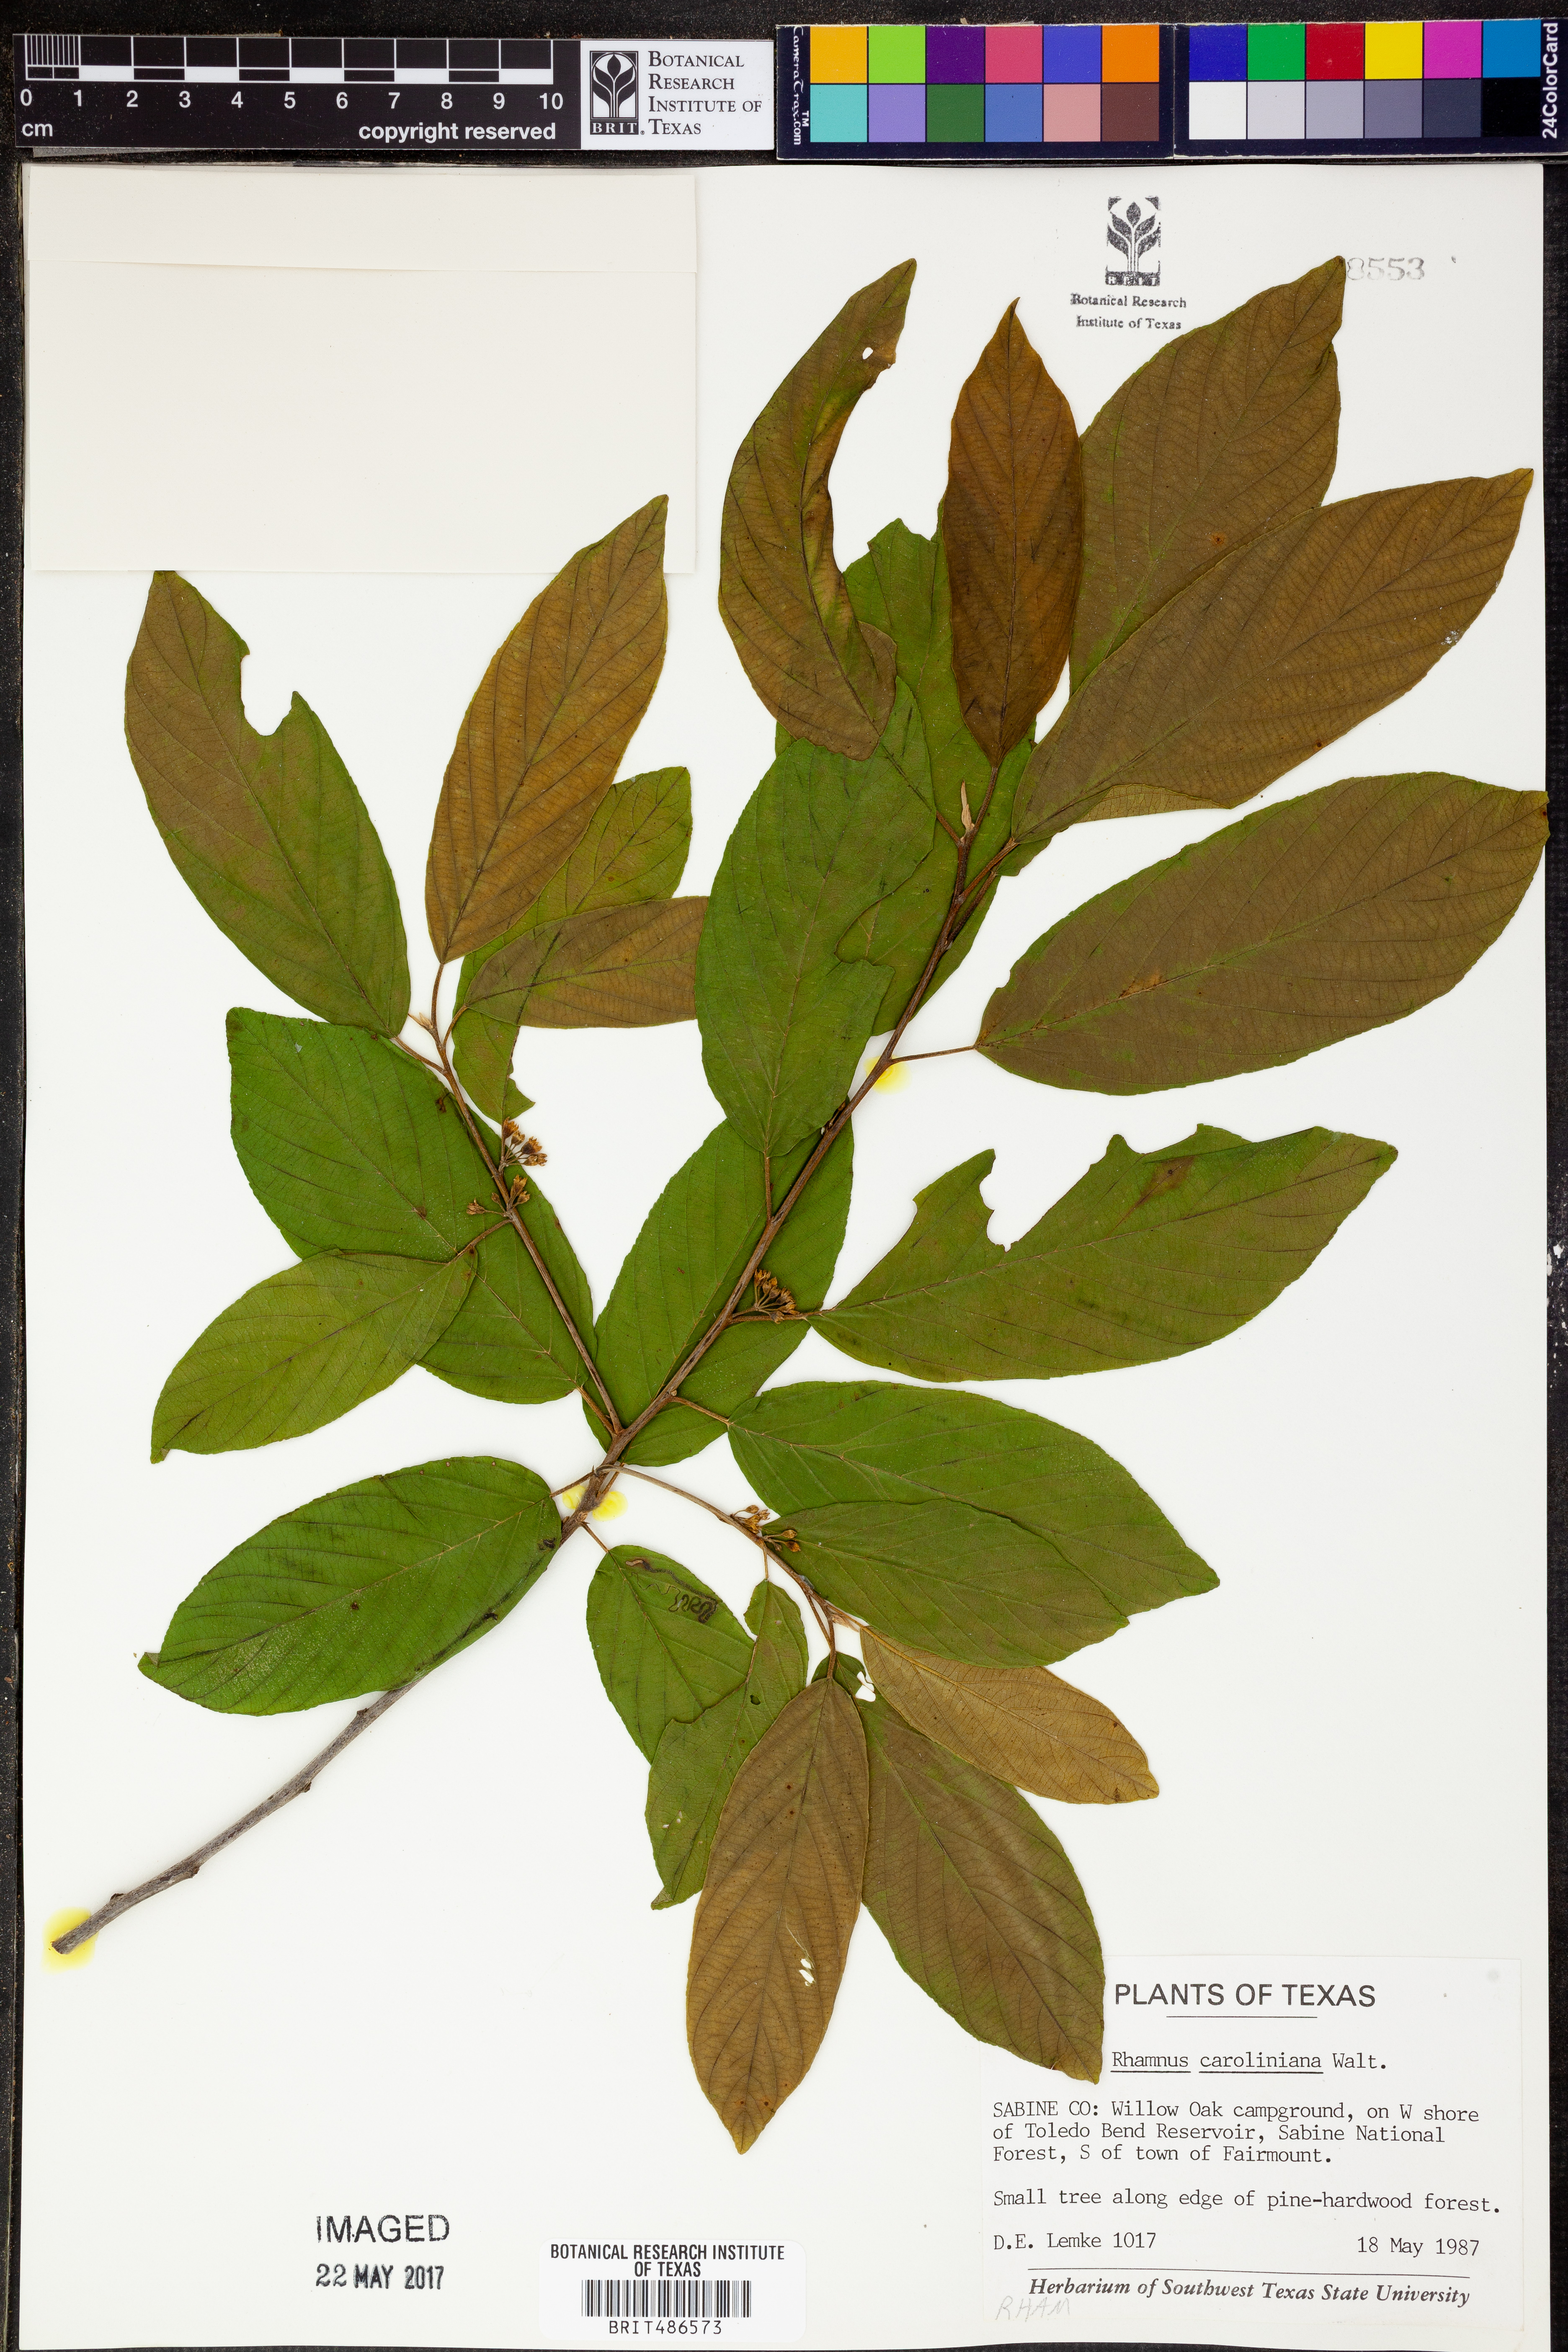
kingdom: Plantae
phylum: Tracheophyta
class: Magnoliopsida
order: Rosales
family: Rhamnaceae
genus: Frangula
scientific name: Frangula caroliniana
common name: Carolina buckthorn
